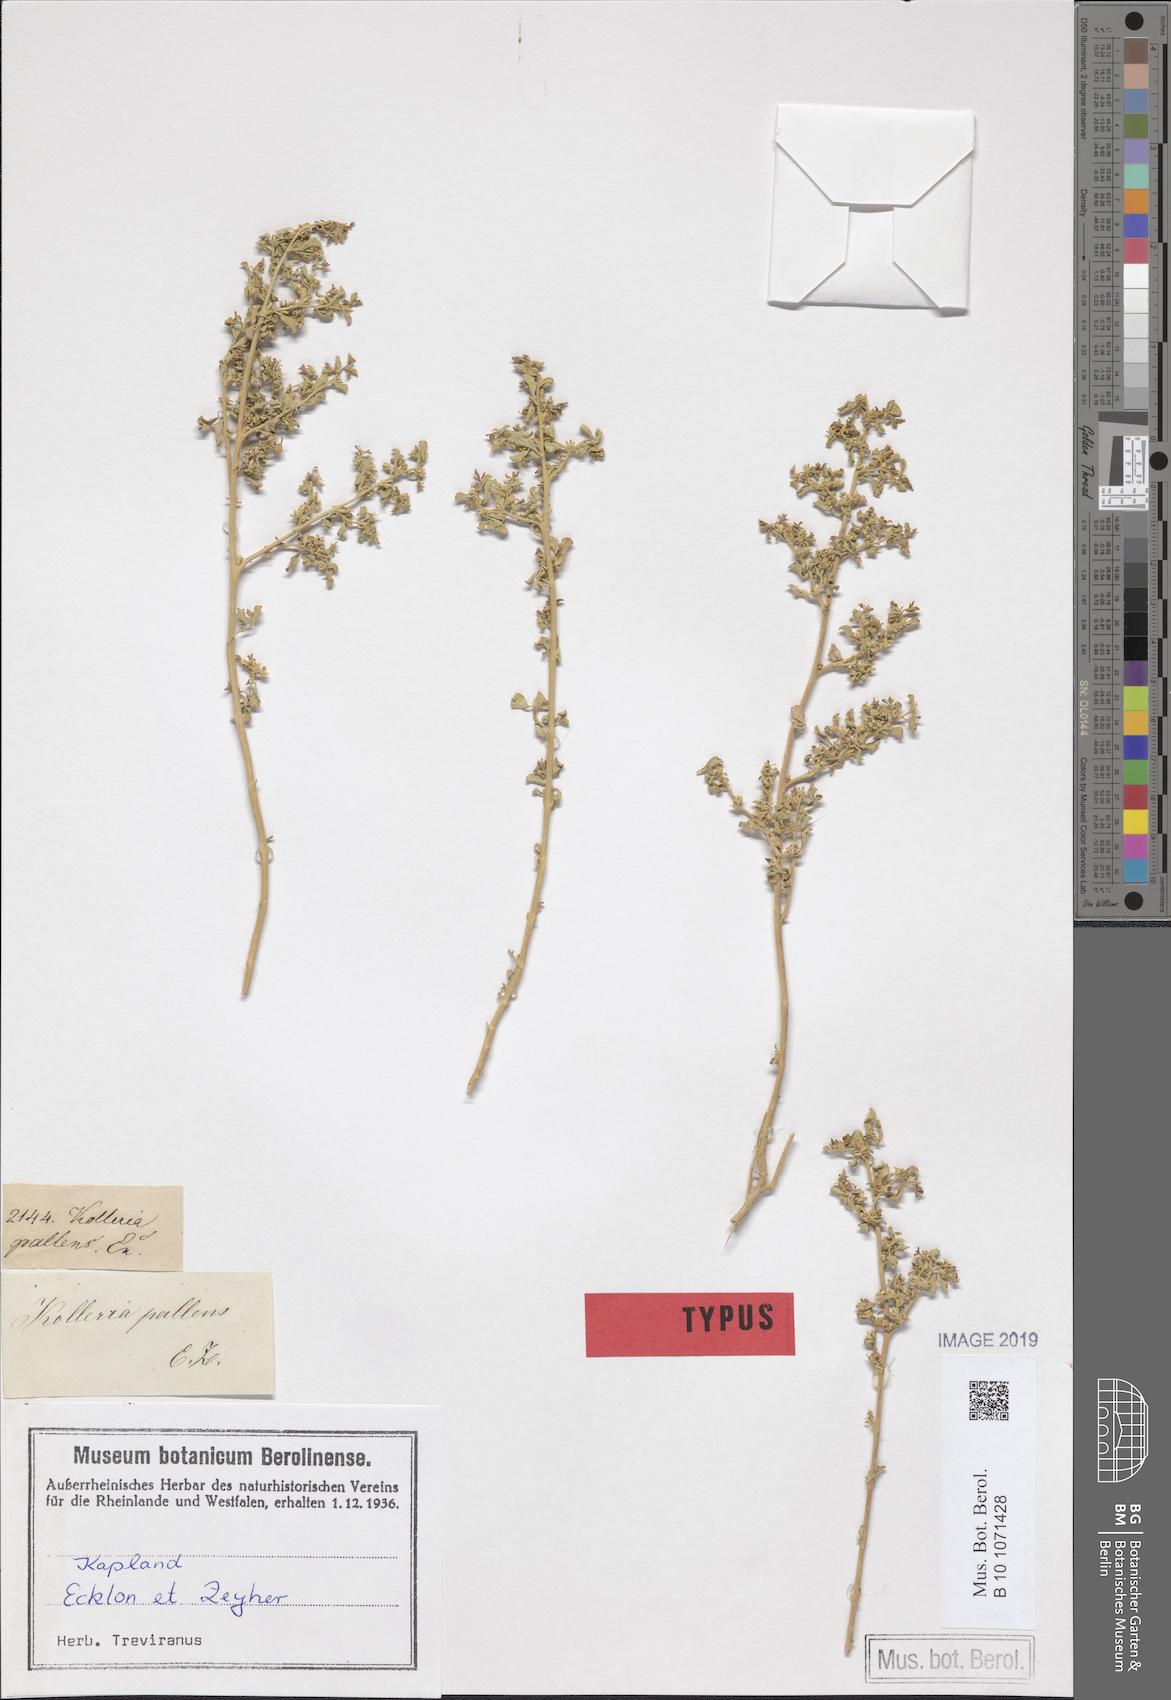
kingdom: Plantae
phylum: Tracheophyta
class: Magnoliopsida
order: Caryophyllales
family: Aizoaceae
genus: Aizoon
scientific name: Aizoon pallens
